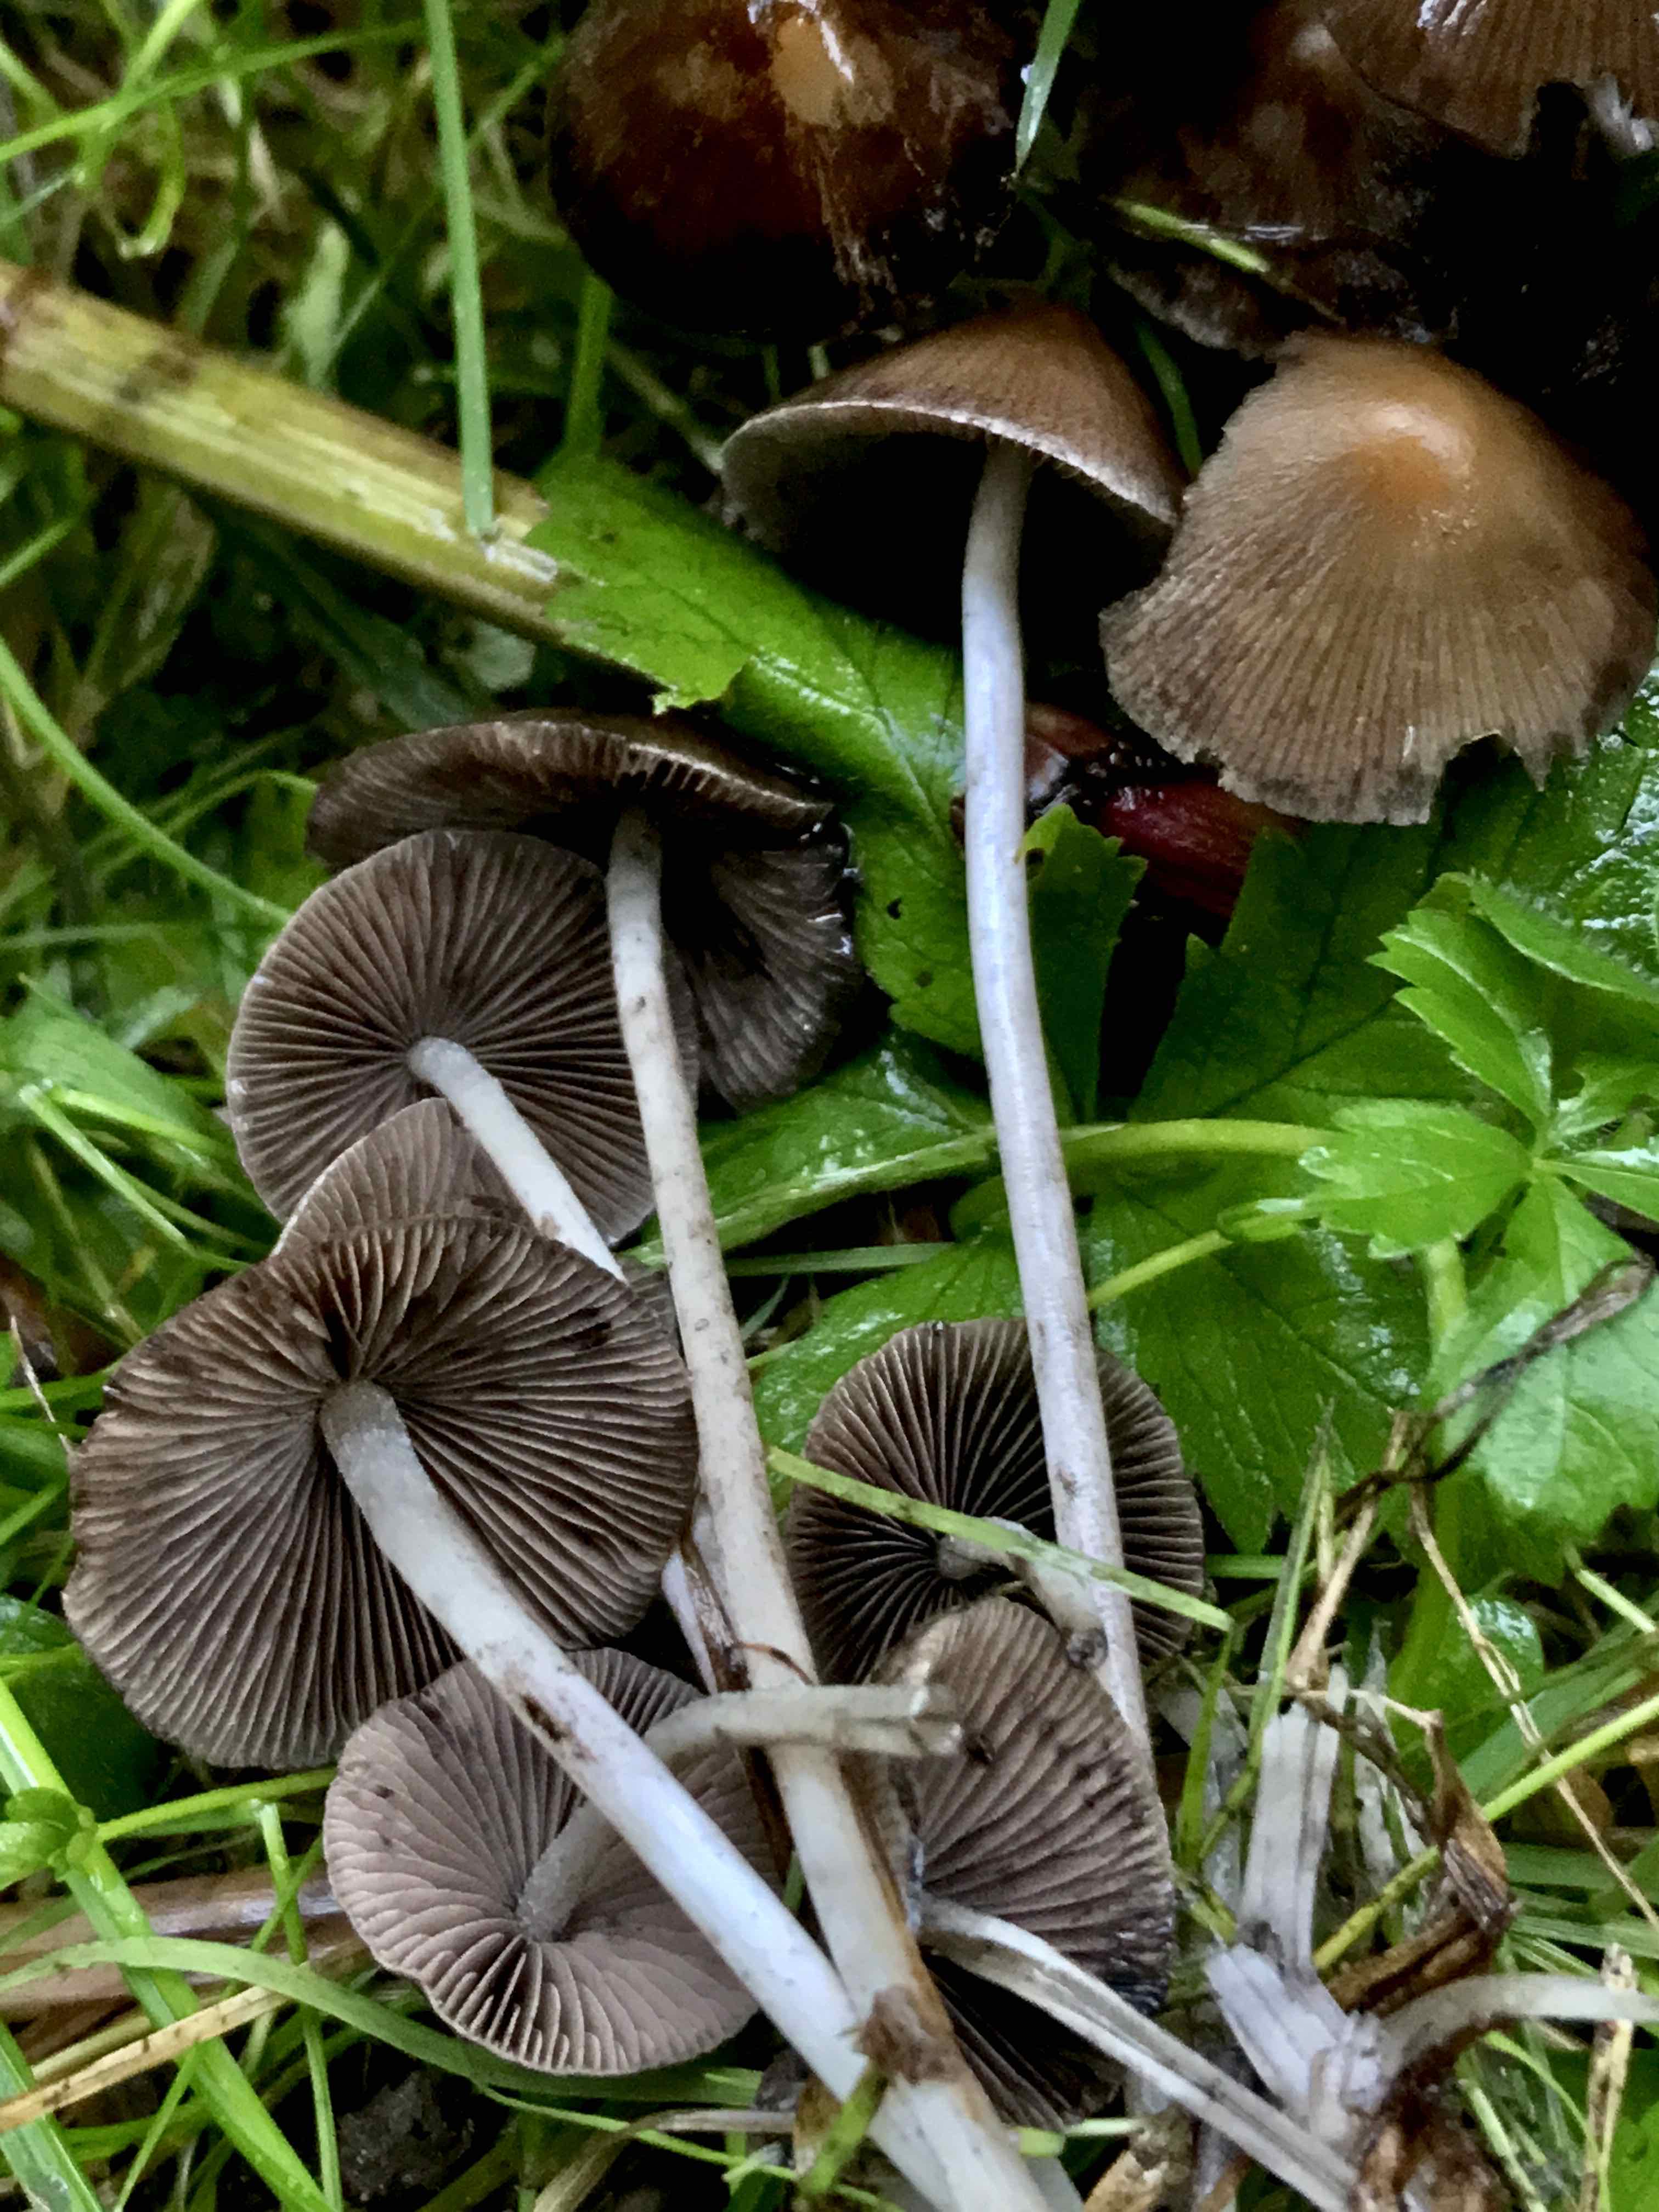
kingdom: Fungi
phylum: Basidiomycota
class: Agaricomycetes
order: Agaricales
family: Psathyrellaceae
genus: Psathyrella
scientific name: Psathyrella piluliformis
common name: lysstokket mørkhat
